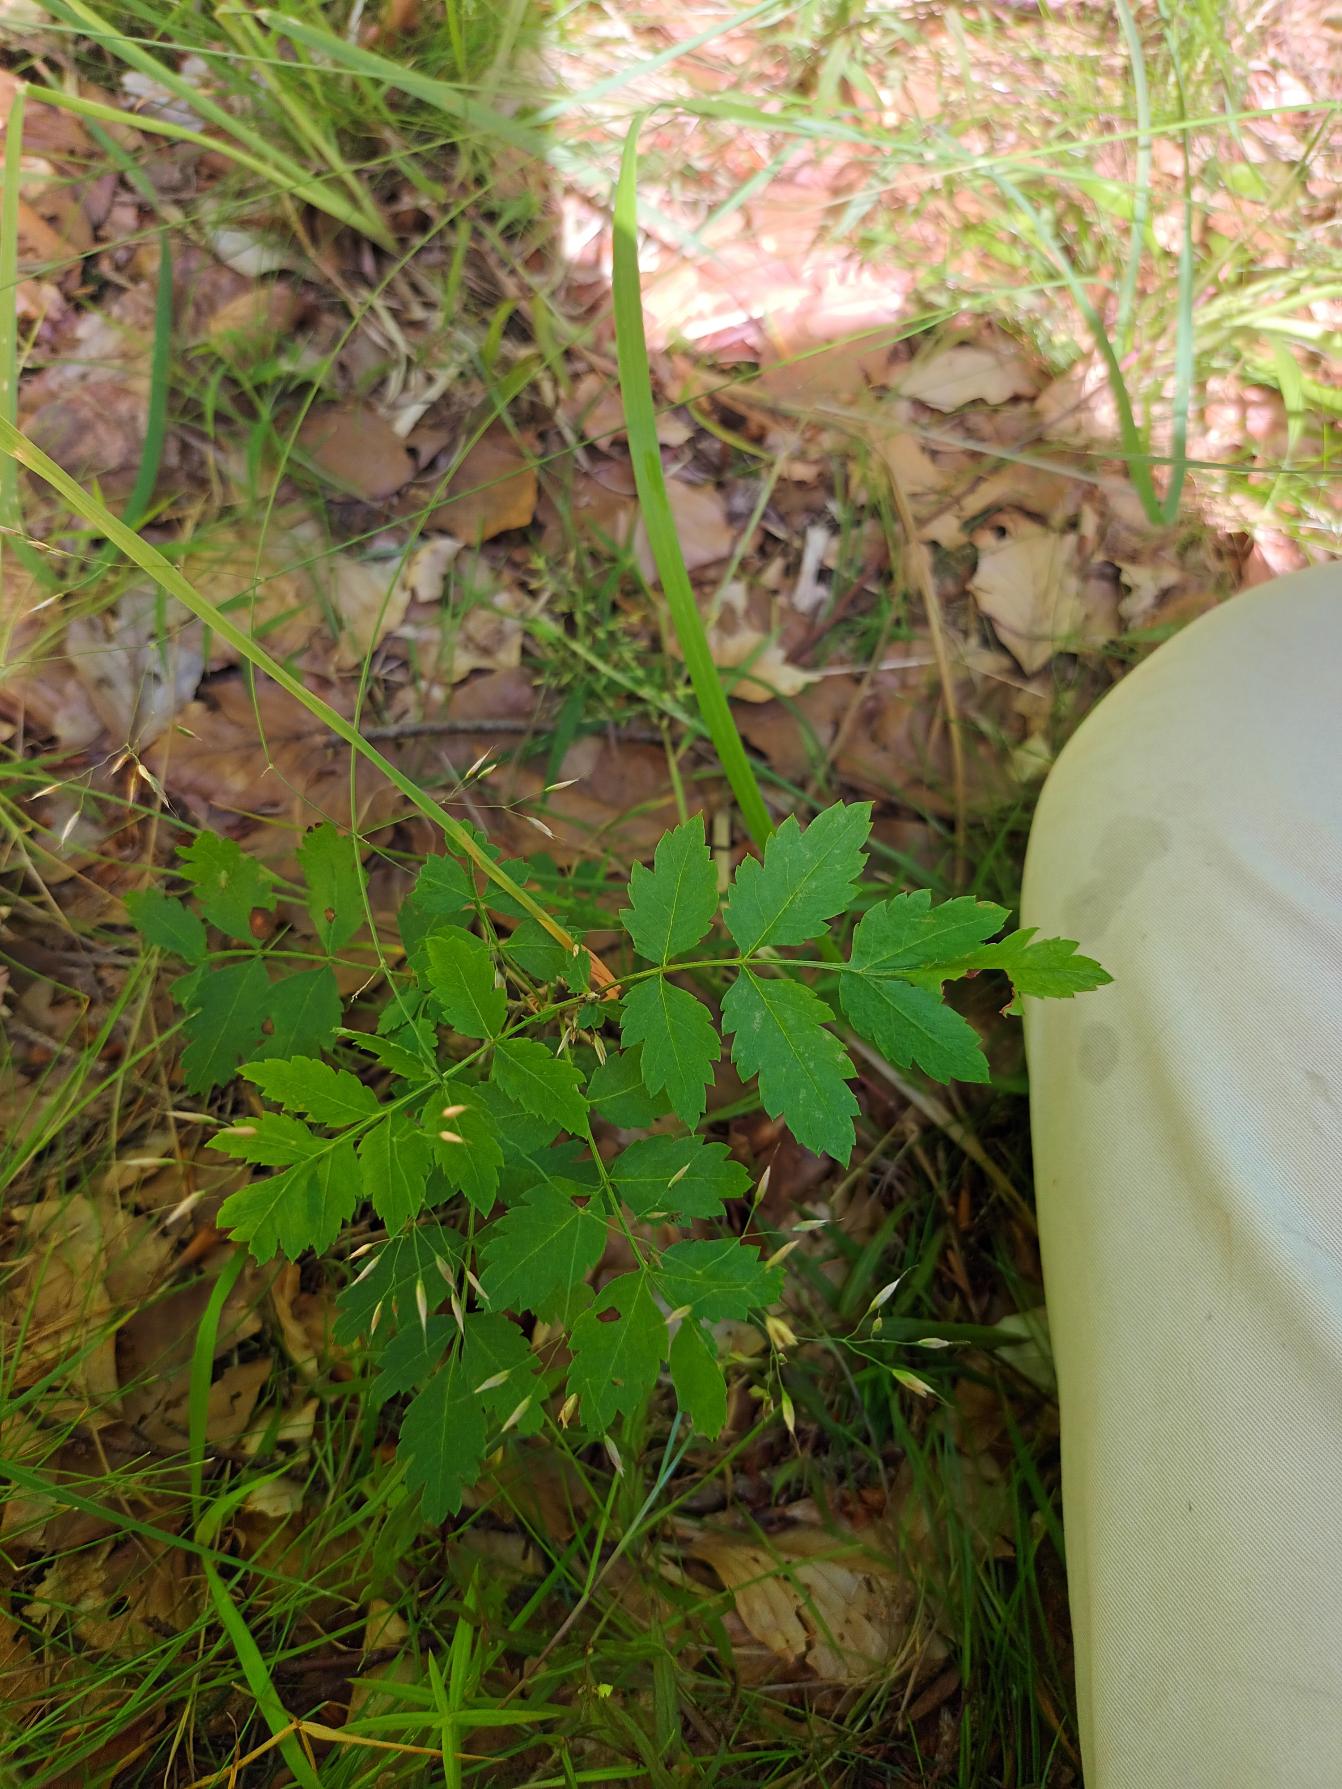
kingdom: Plantae
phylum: Tracheophyta
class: Magnoliopsida
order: Rosales
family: Rosaceae
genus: Sorbus
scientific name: Sorbus aucuparia
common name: Almindelig røn
